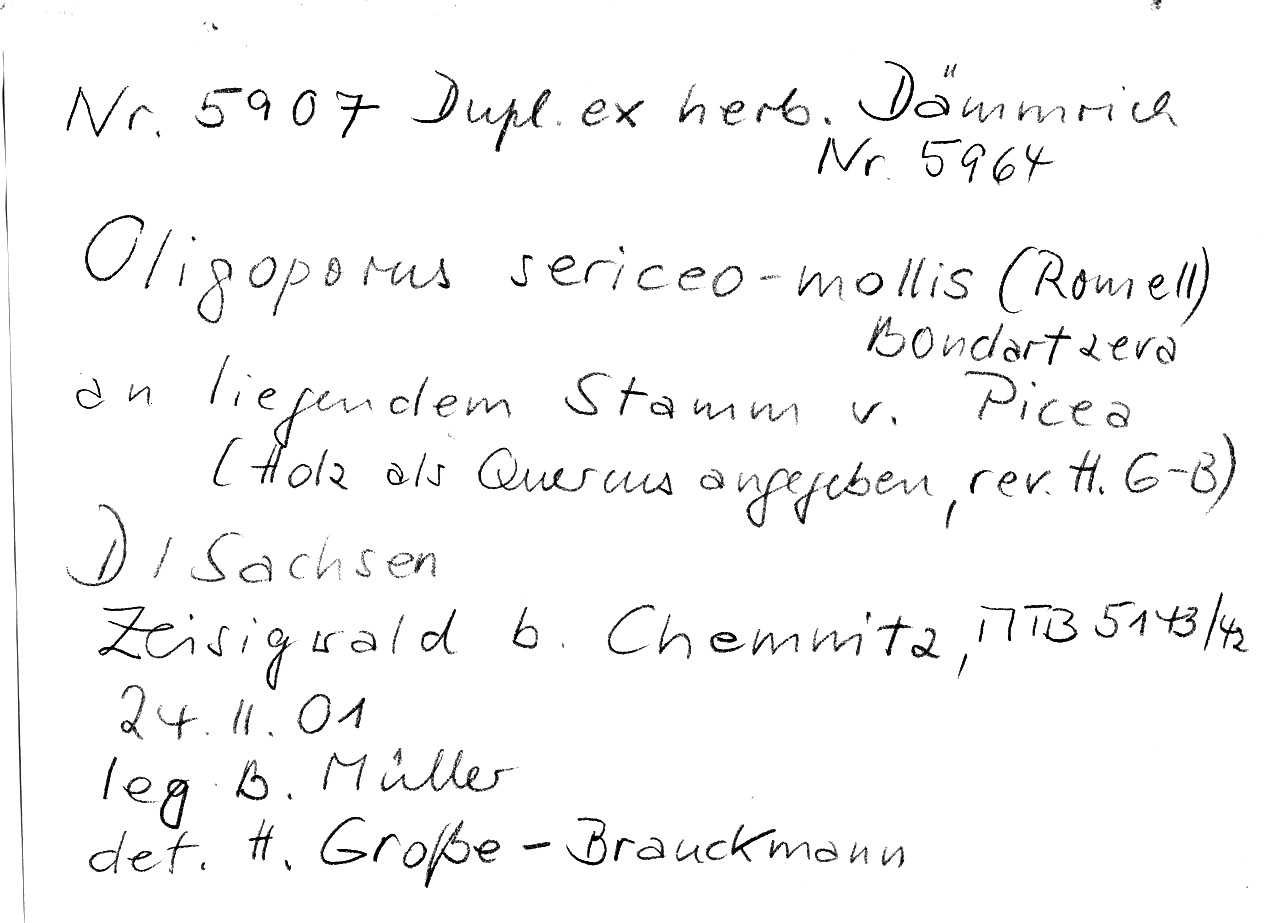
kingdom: Plantae
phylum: Tracheophyta
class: Pinopsida
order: Pinales
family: Pinaceae
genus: Picea
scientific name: Picea
